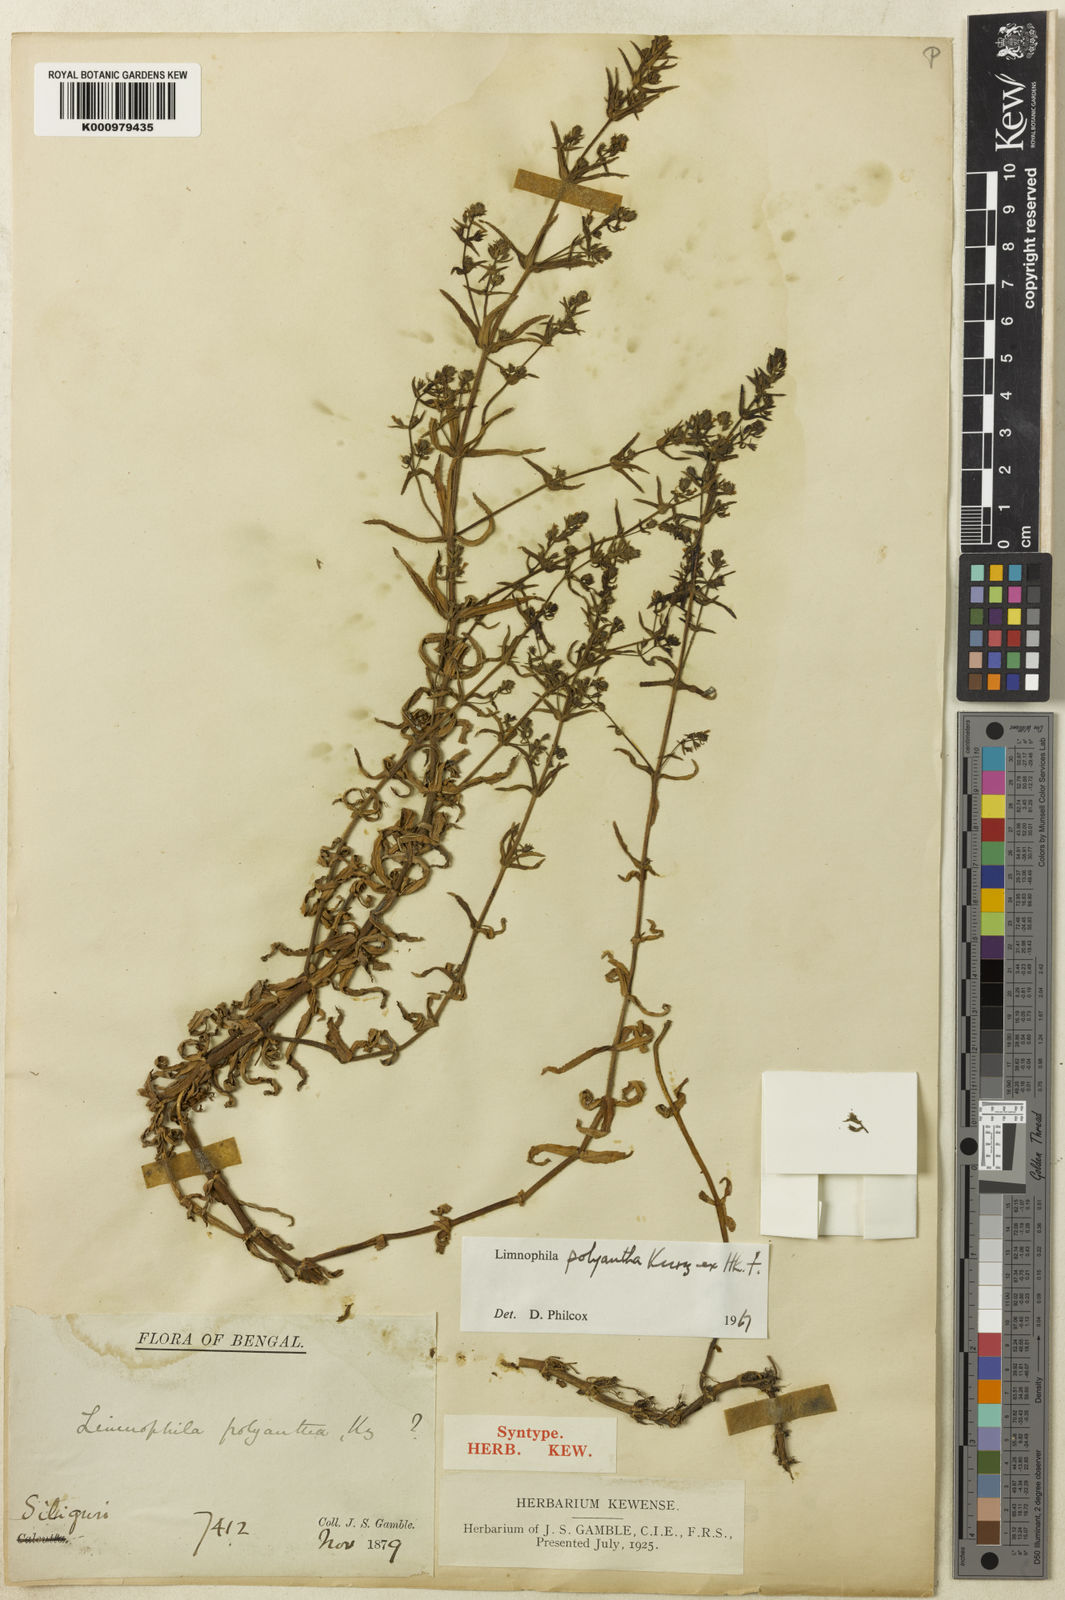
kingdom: Plantae
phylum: Tracheophyta
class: Magnoliopsida
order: Lamiales
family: Plantaginaceae
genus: Limnophila
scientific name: Limnophila polyantha
